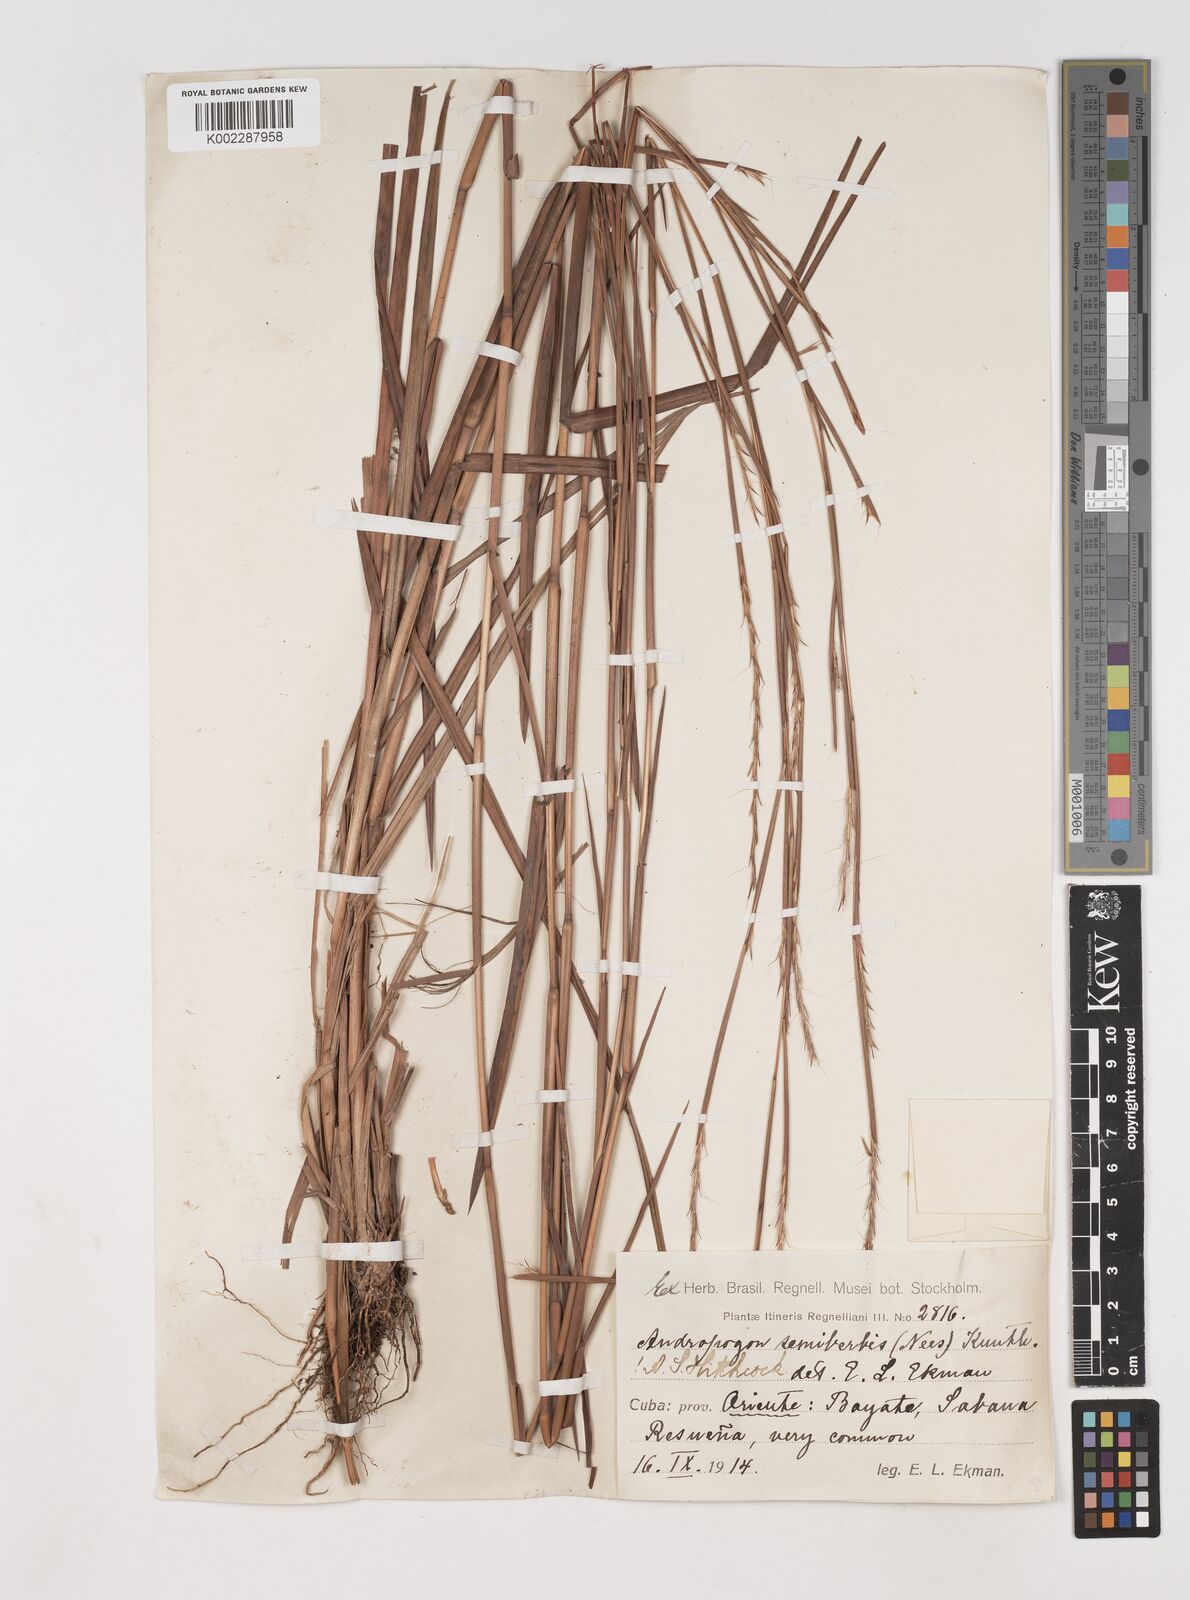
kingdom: Plantae
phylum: Tracheophyta
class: Liliopsida
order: Poales
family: Poaceae
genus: Schizachyrium
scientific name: Schizachyrium sanguineum
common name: Crimson bluestem
